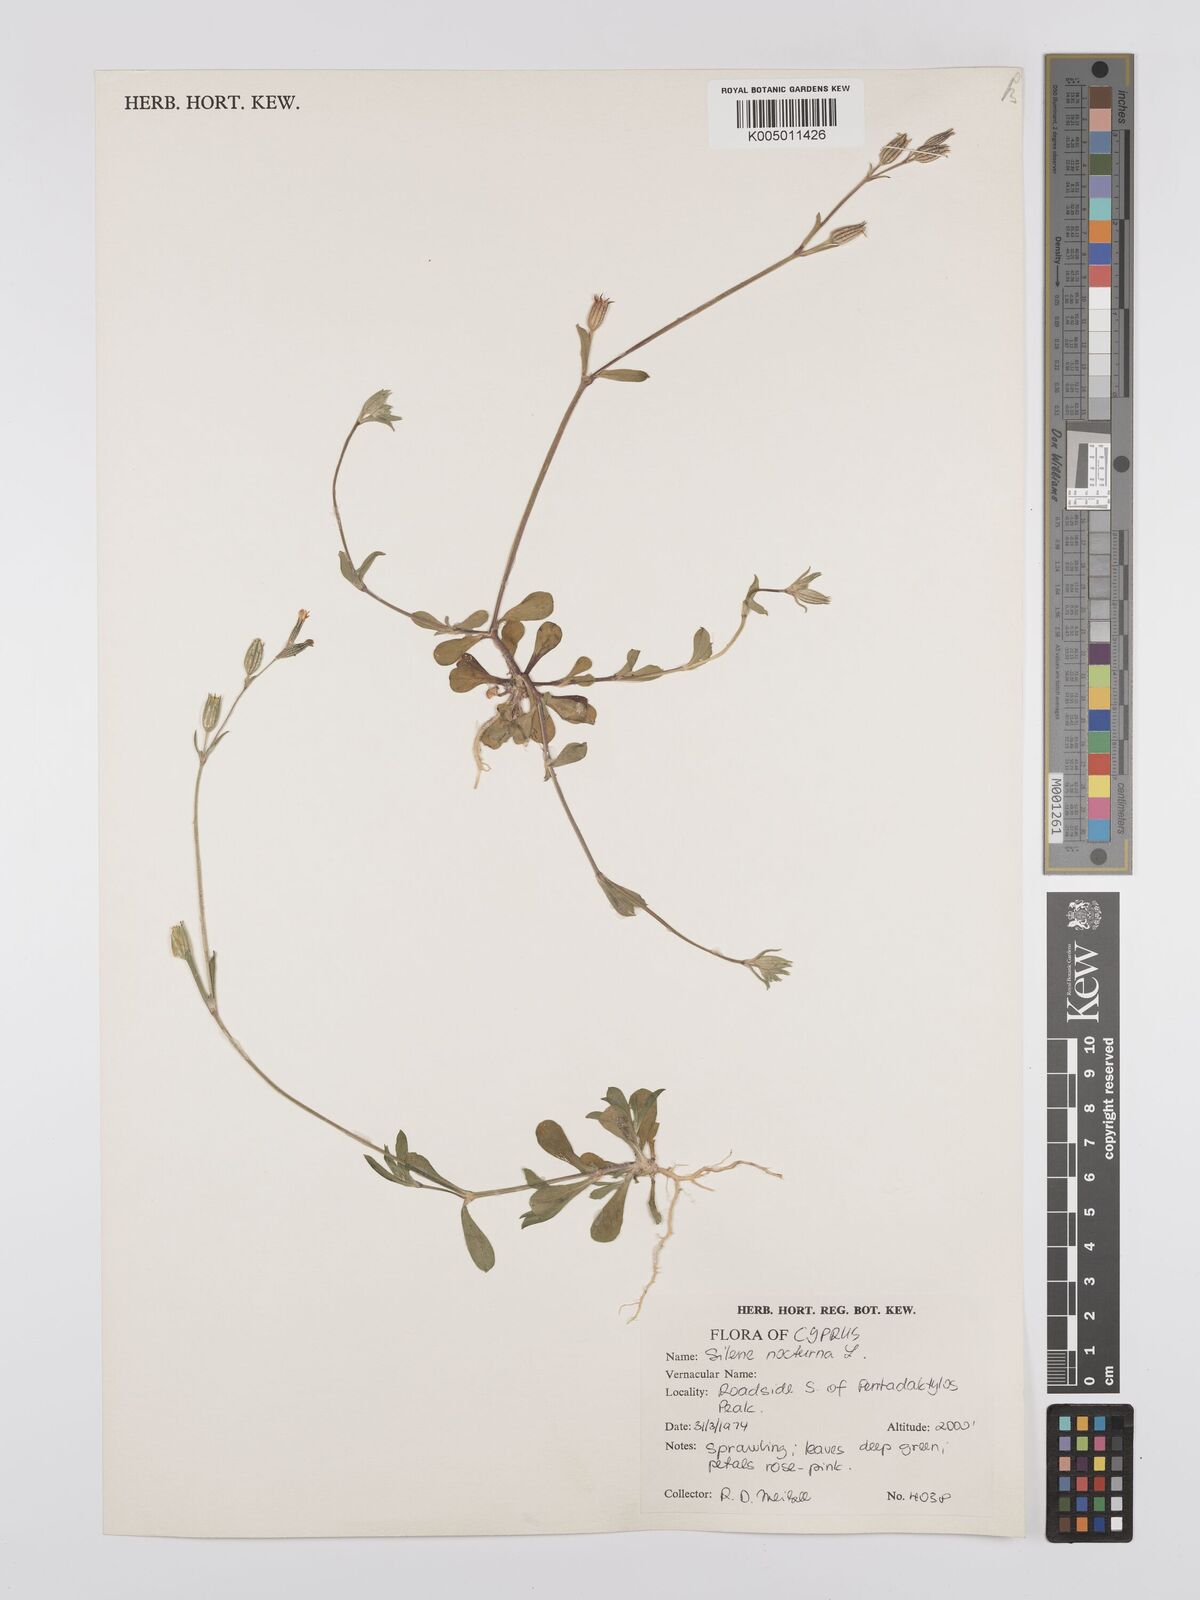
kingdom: Plantae
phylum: Tracheophyta
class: Magnoliopsida
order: Caryophyllales
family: Caryophyllaceae
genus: Silene
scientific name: Silene nocturna
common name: Mediterranean catchfly
